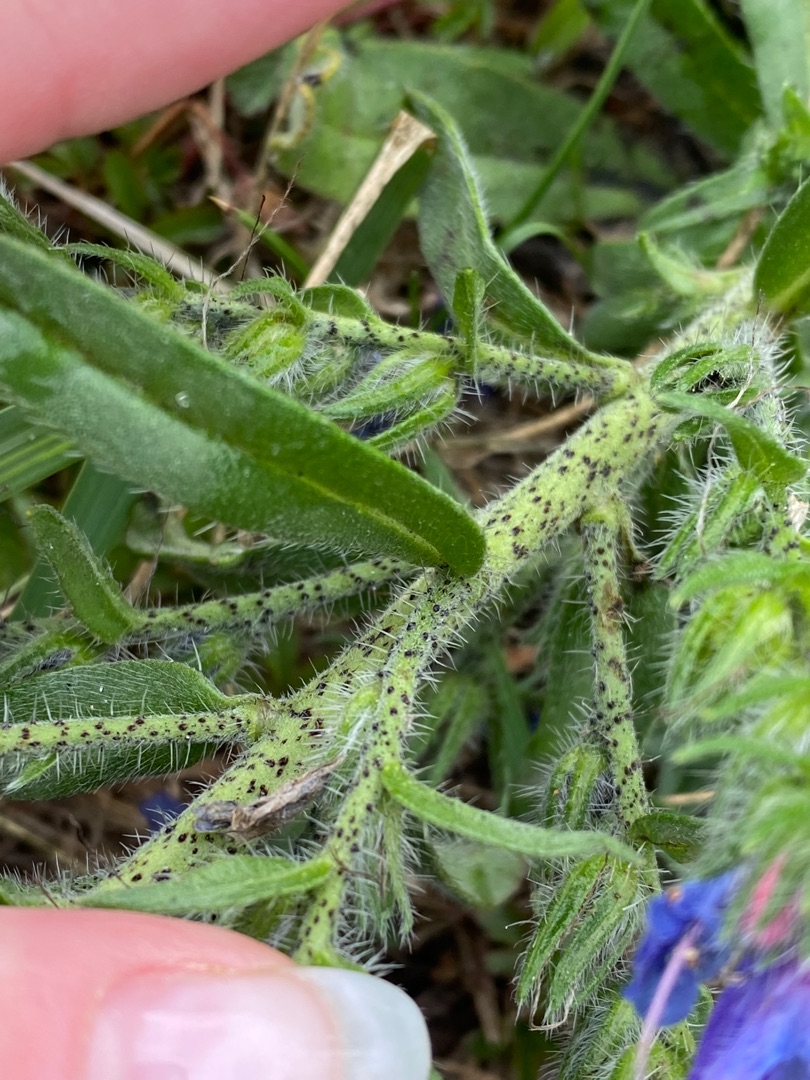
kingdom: Plantae
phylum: Tracheophyta
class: Magnoliopsida
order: Boraginales
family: Boraginaceae
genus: Echium
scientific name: Echium vulgare
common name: Slangehoved
